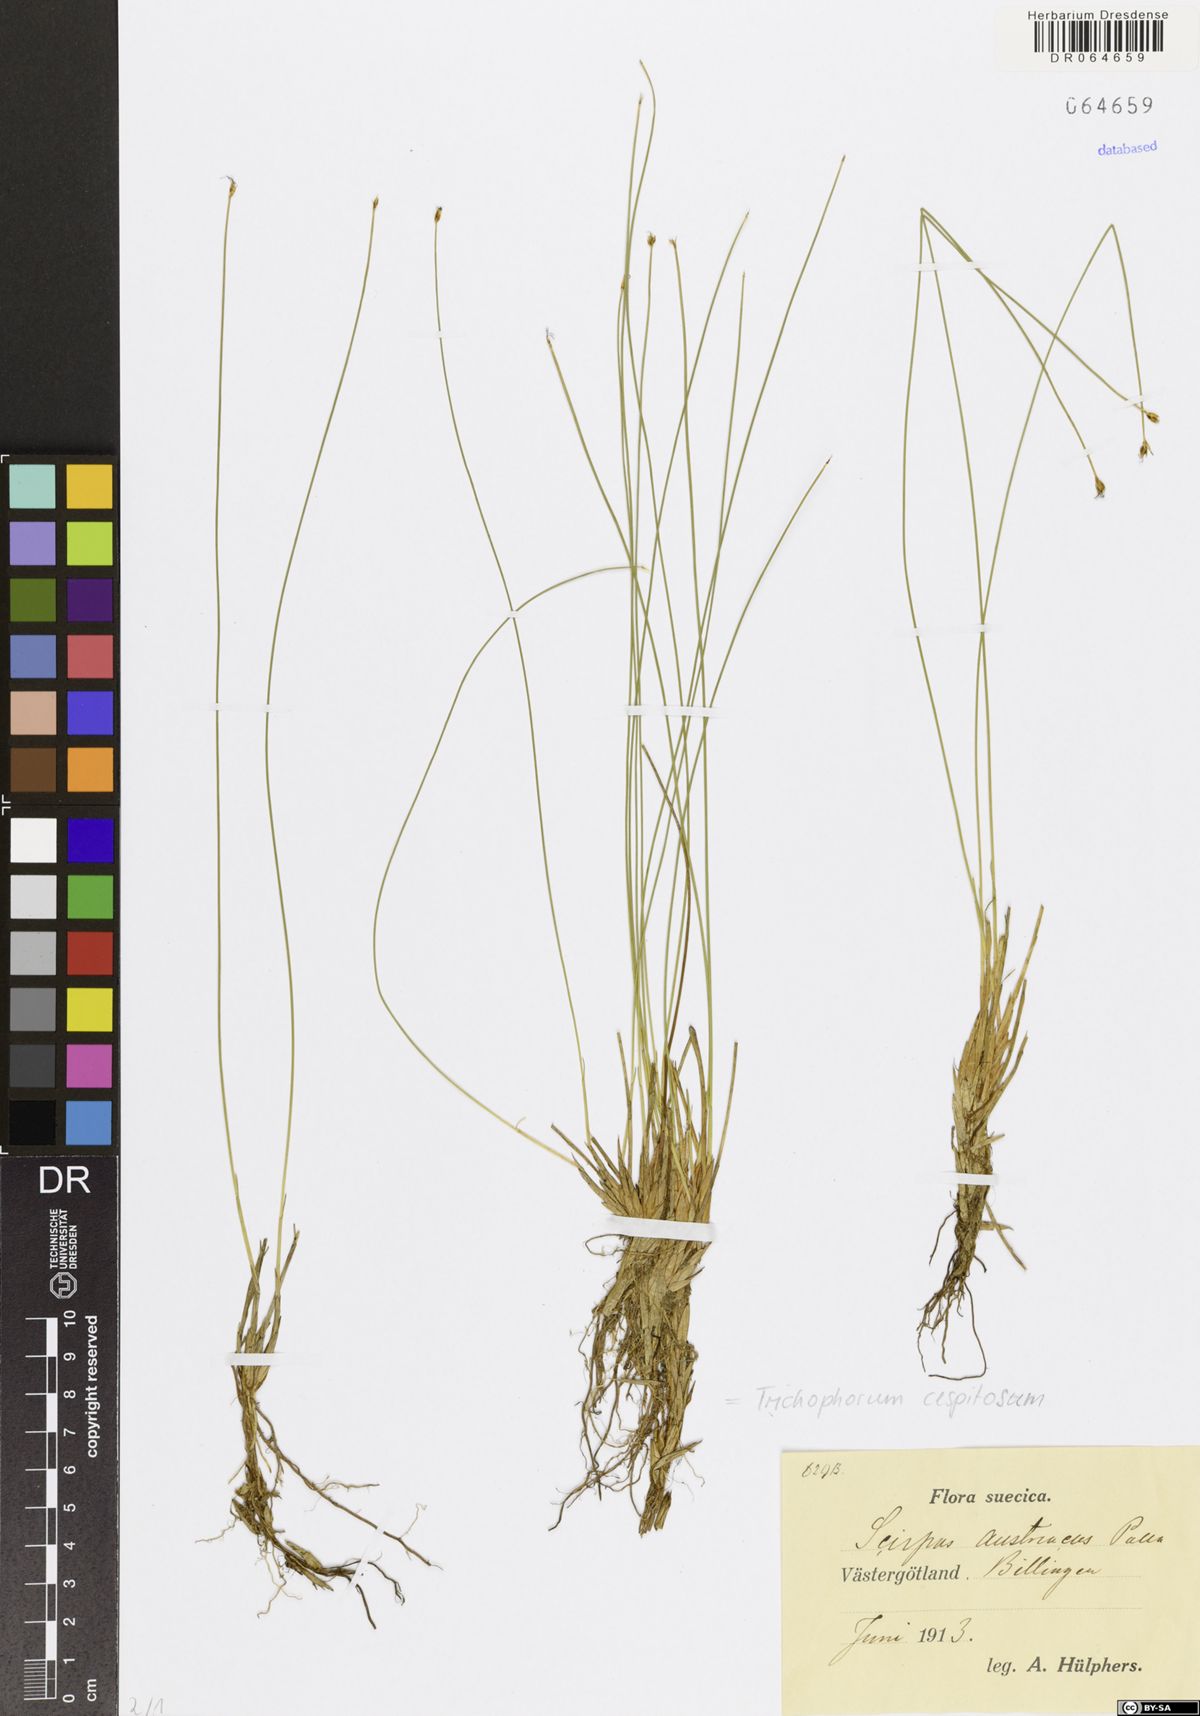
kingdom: Plantae
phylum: Tracheophyta
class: Liliopsida
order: Poales
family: Cyperaceae
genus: Trichophorum
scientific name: Trichophorum cespitosum
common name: Cespitose bulrush
